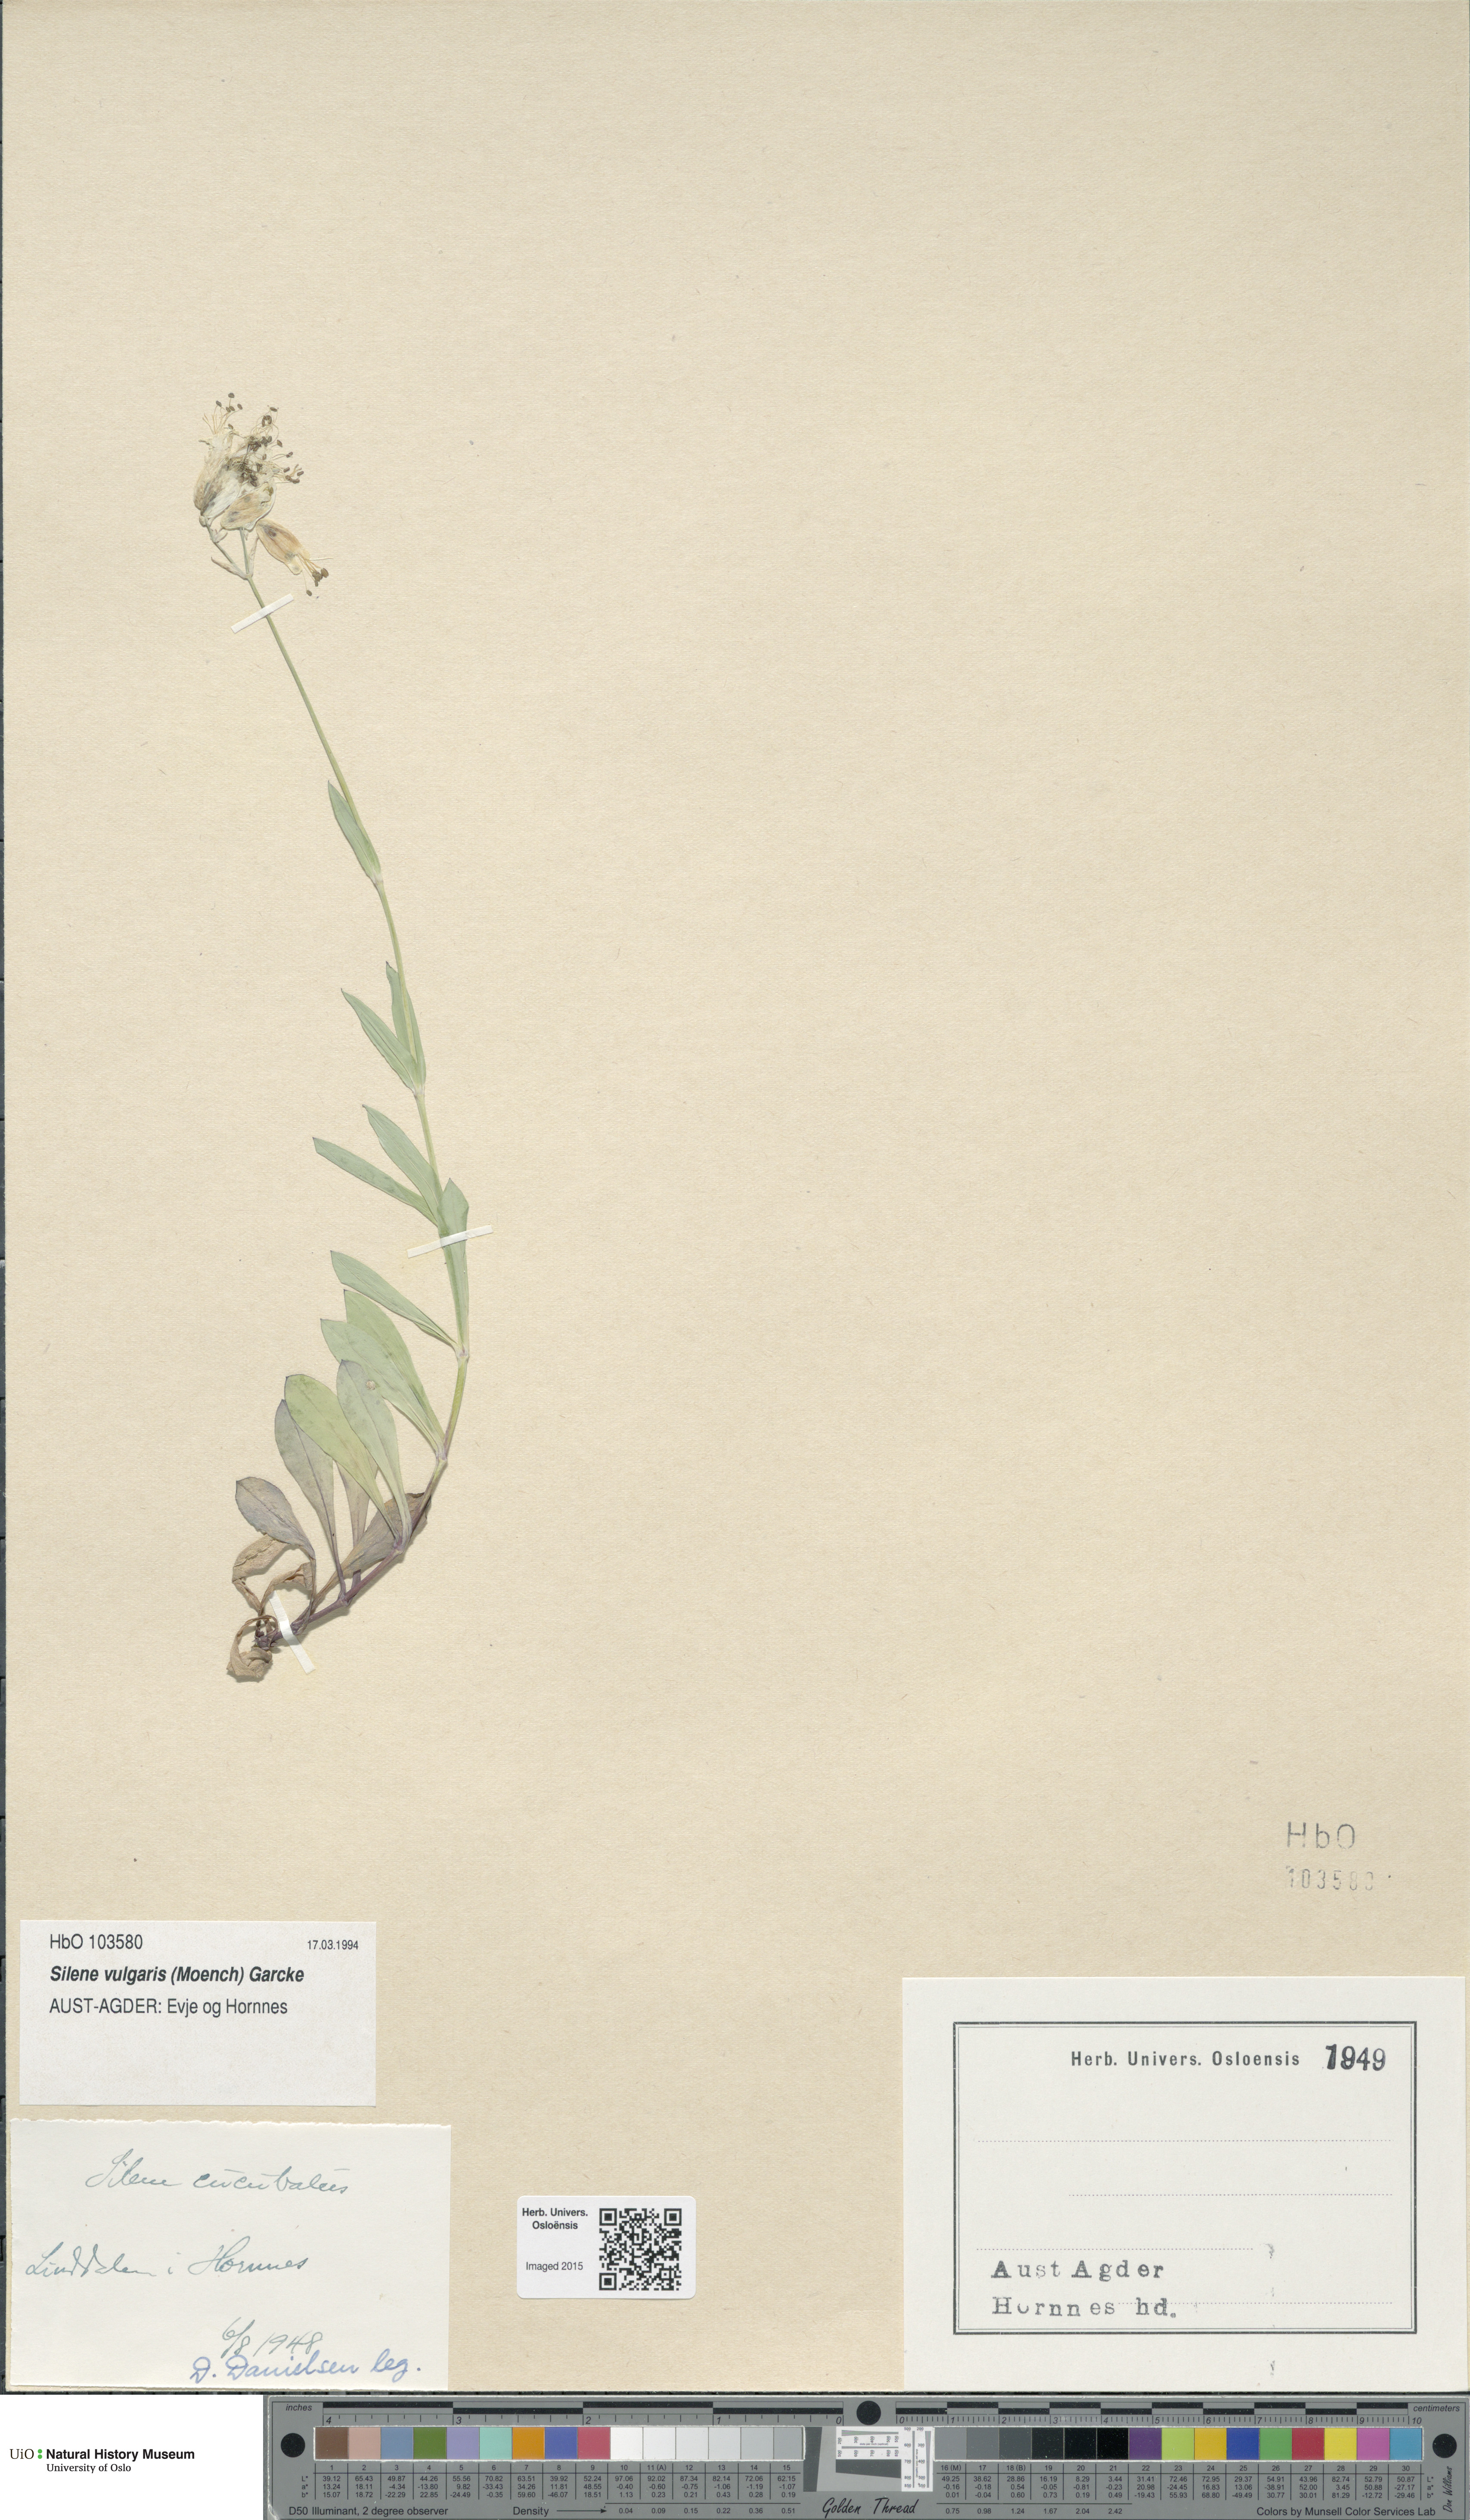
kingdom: Plantae
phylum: Tracheophyta
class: Magnoliopsida
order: Caryophyllales
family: Caryophyllaceae
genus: Silene
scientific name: Silene vulgaris
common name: Bladder campion
